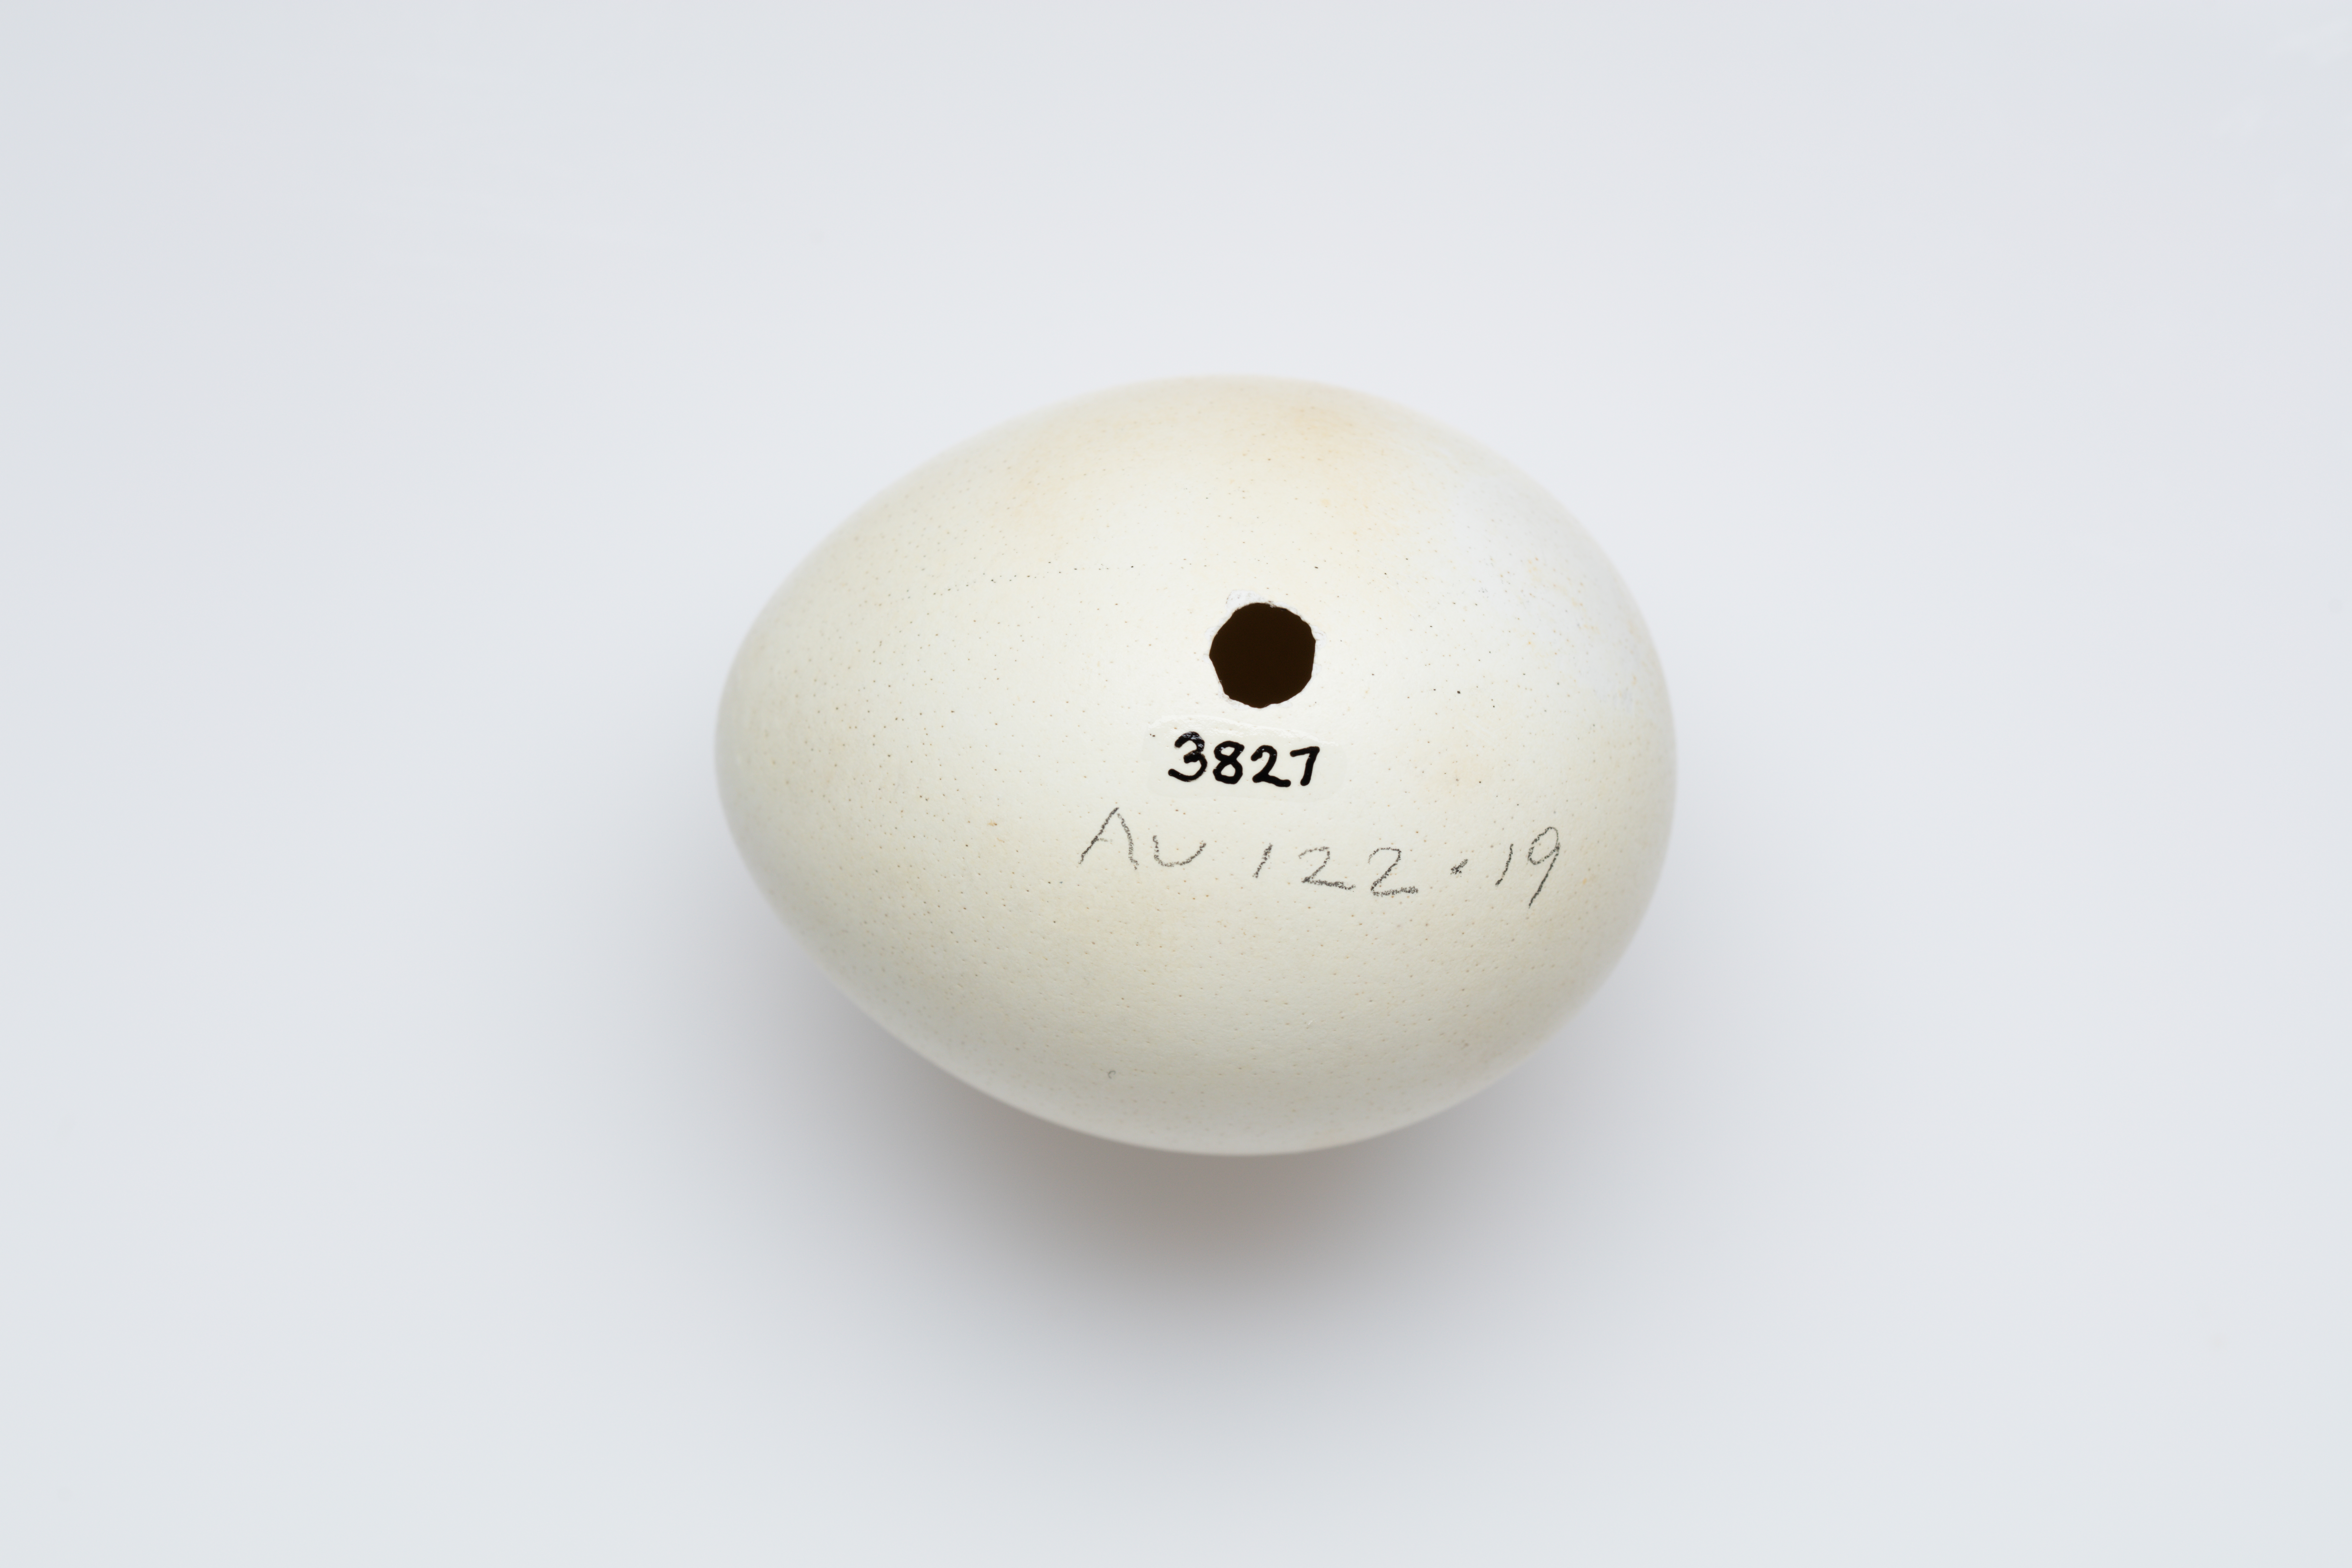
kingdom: Animalia
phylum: Chordata
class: Aves
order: Sphenisciformes
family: Spheniscidae
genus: Eudyptes
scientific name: Eudyptes robustus
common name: Snares penguin
